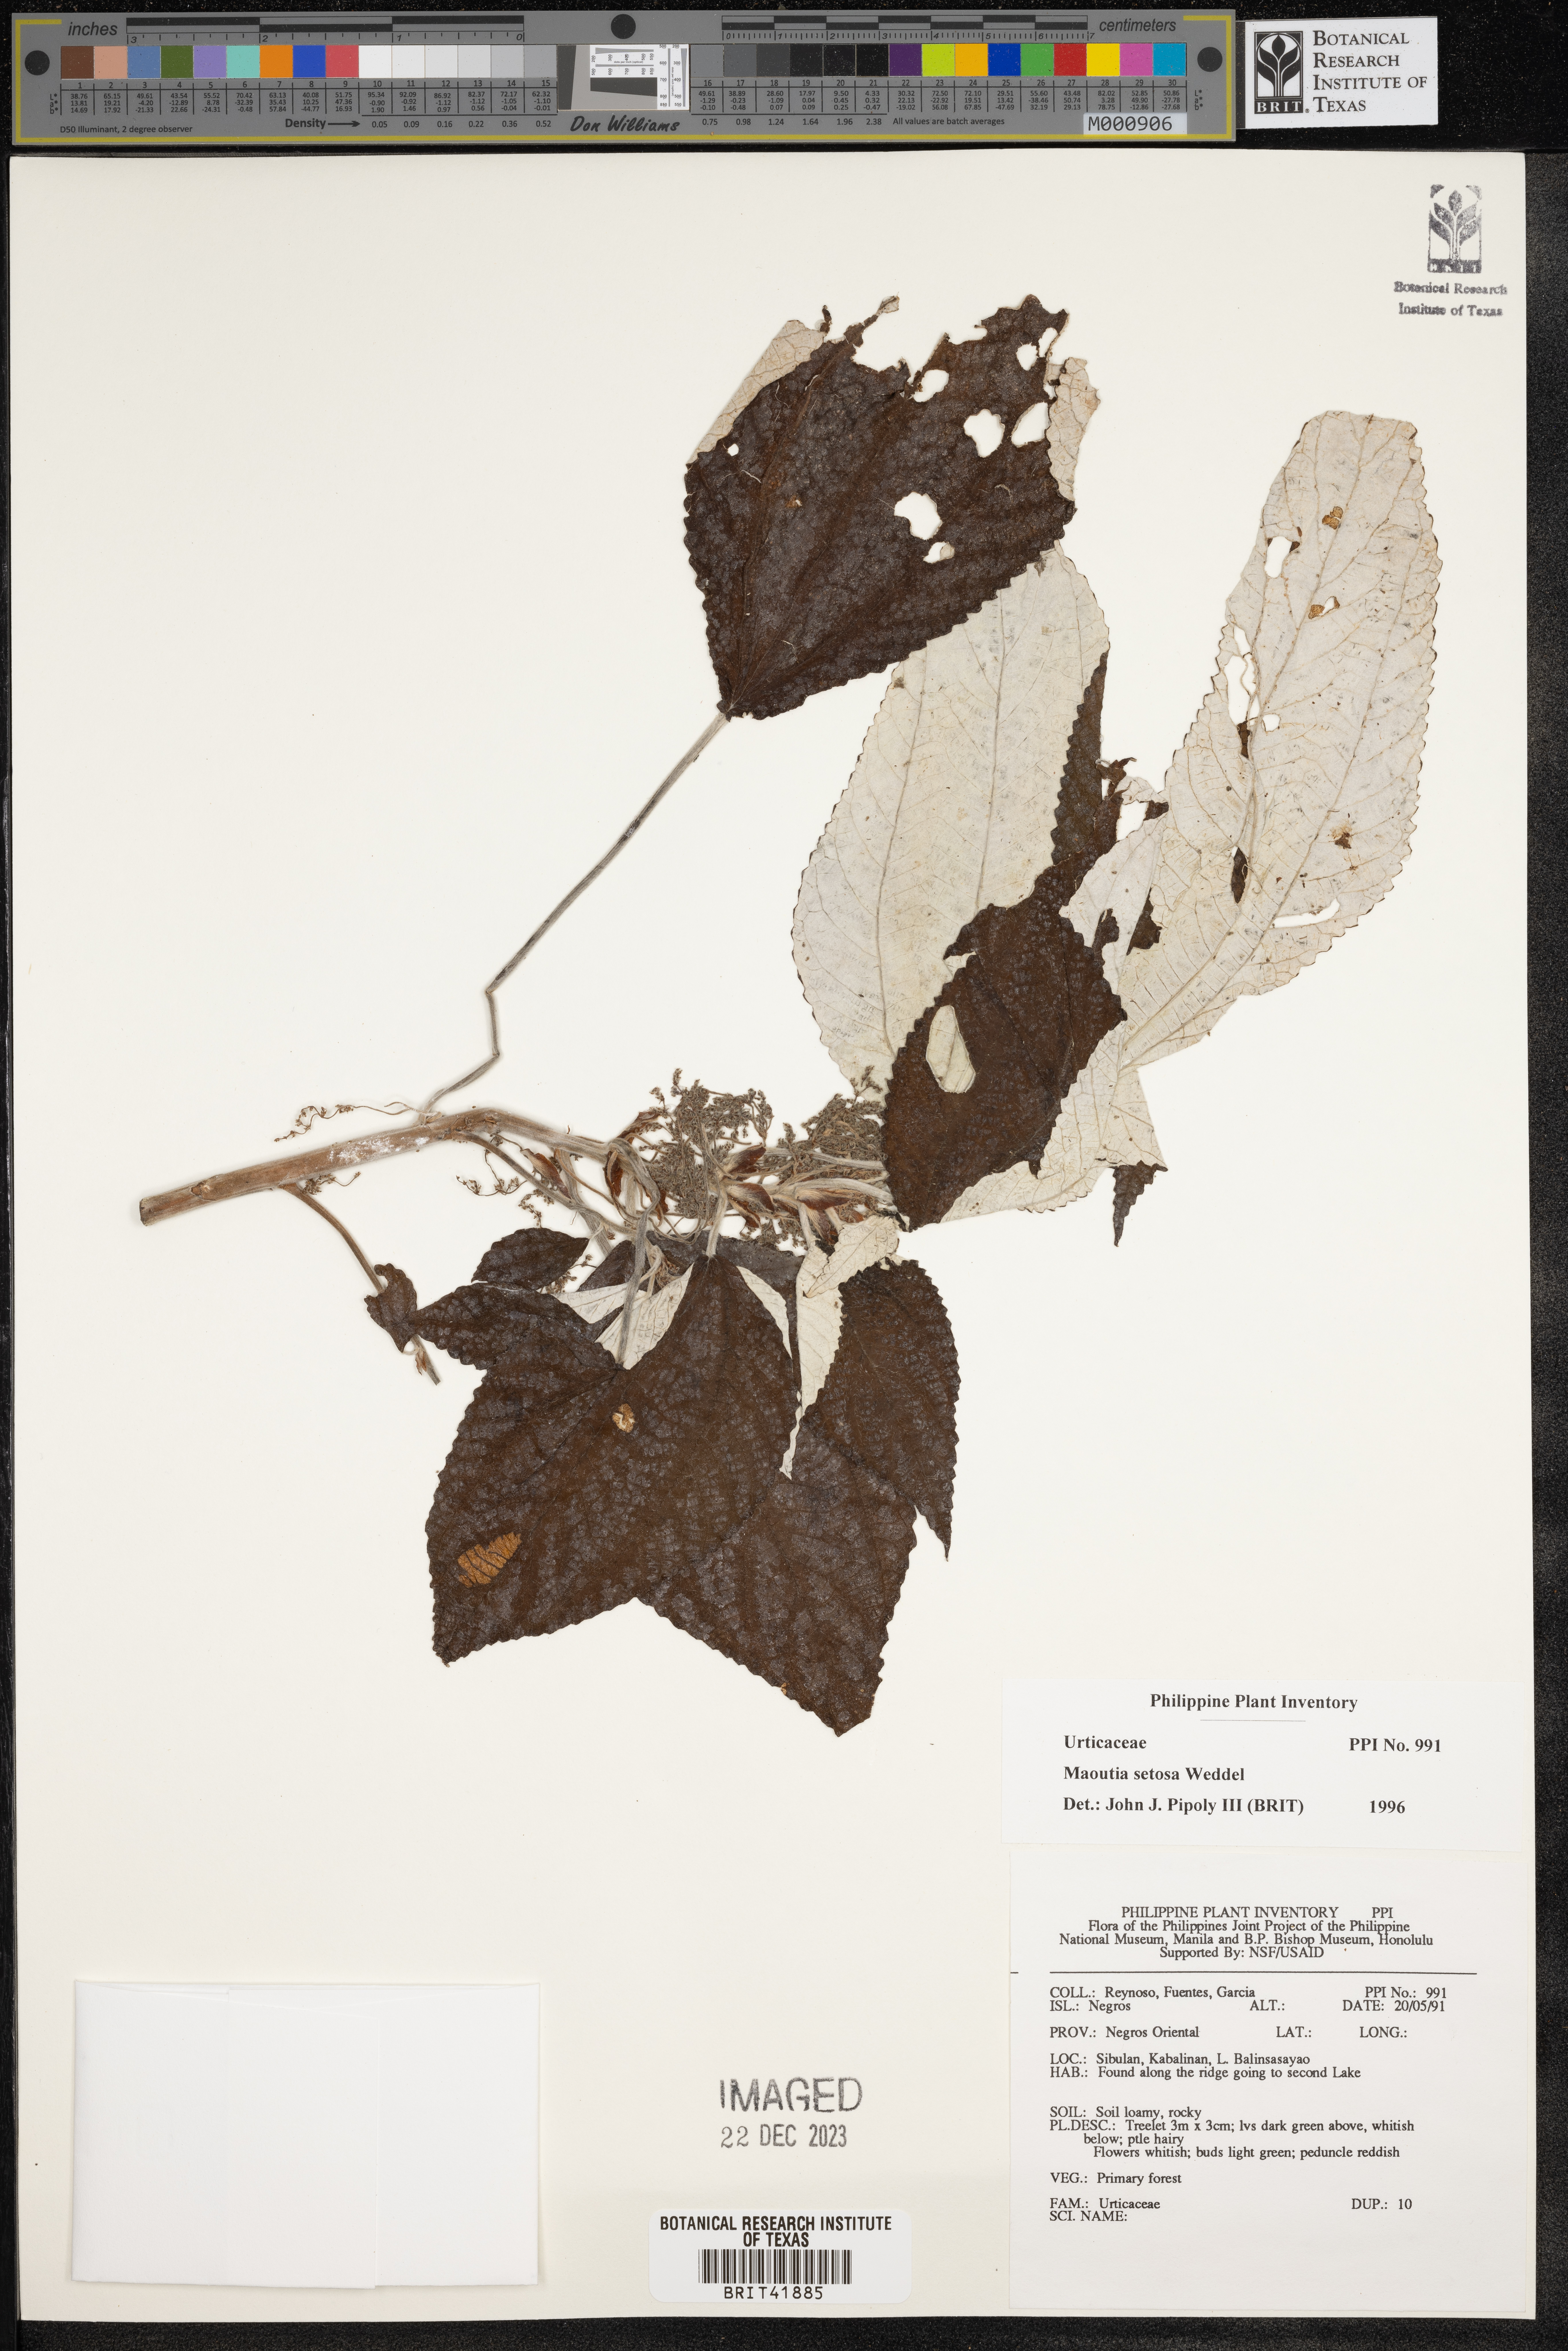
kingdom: Plantae
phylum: Tracheophyta
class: Magnoliopsida
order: Rosales
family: Urticaceae
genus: Maoutia
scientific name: Maoutia setosa
